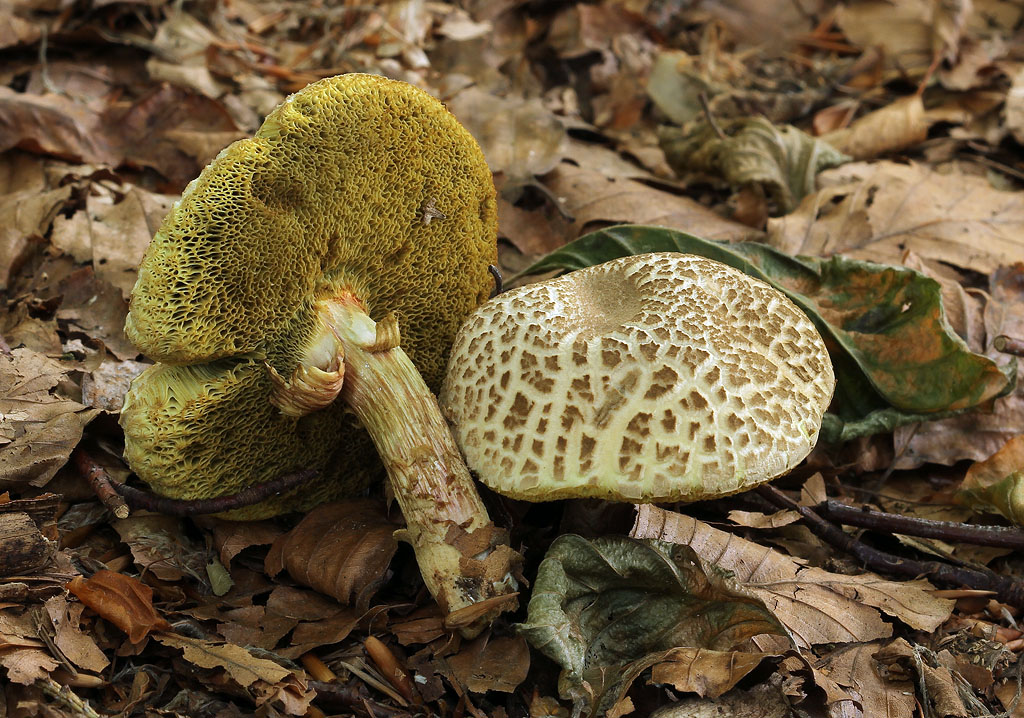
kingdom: Fungi
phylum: Basidiomycota
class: Agaricomycetes
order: Boletales
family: Boletaceae
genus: Xerocomellus
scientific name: Xerocomellus porosporus
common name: hvidsprukken rørhat
